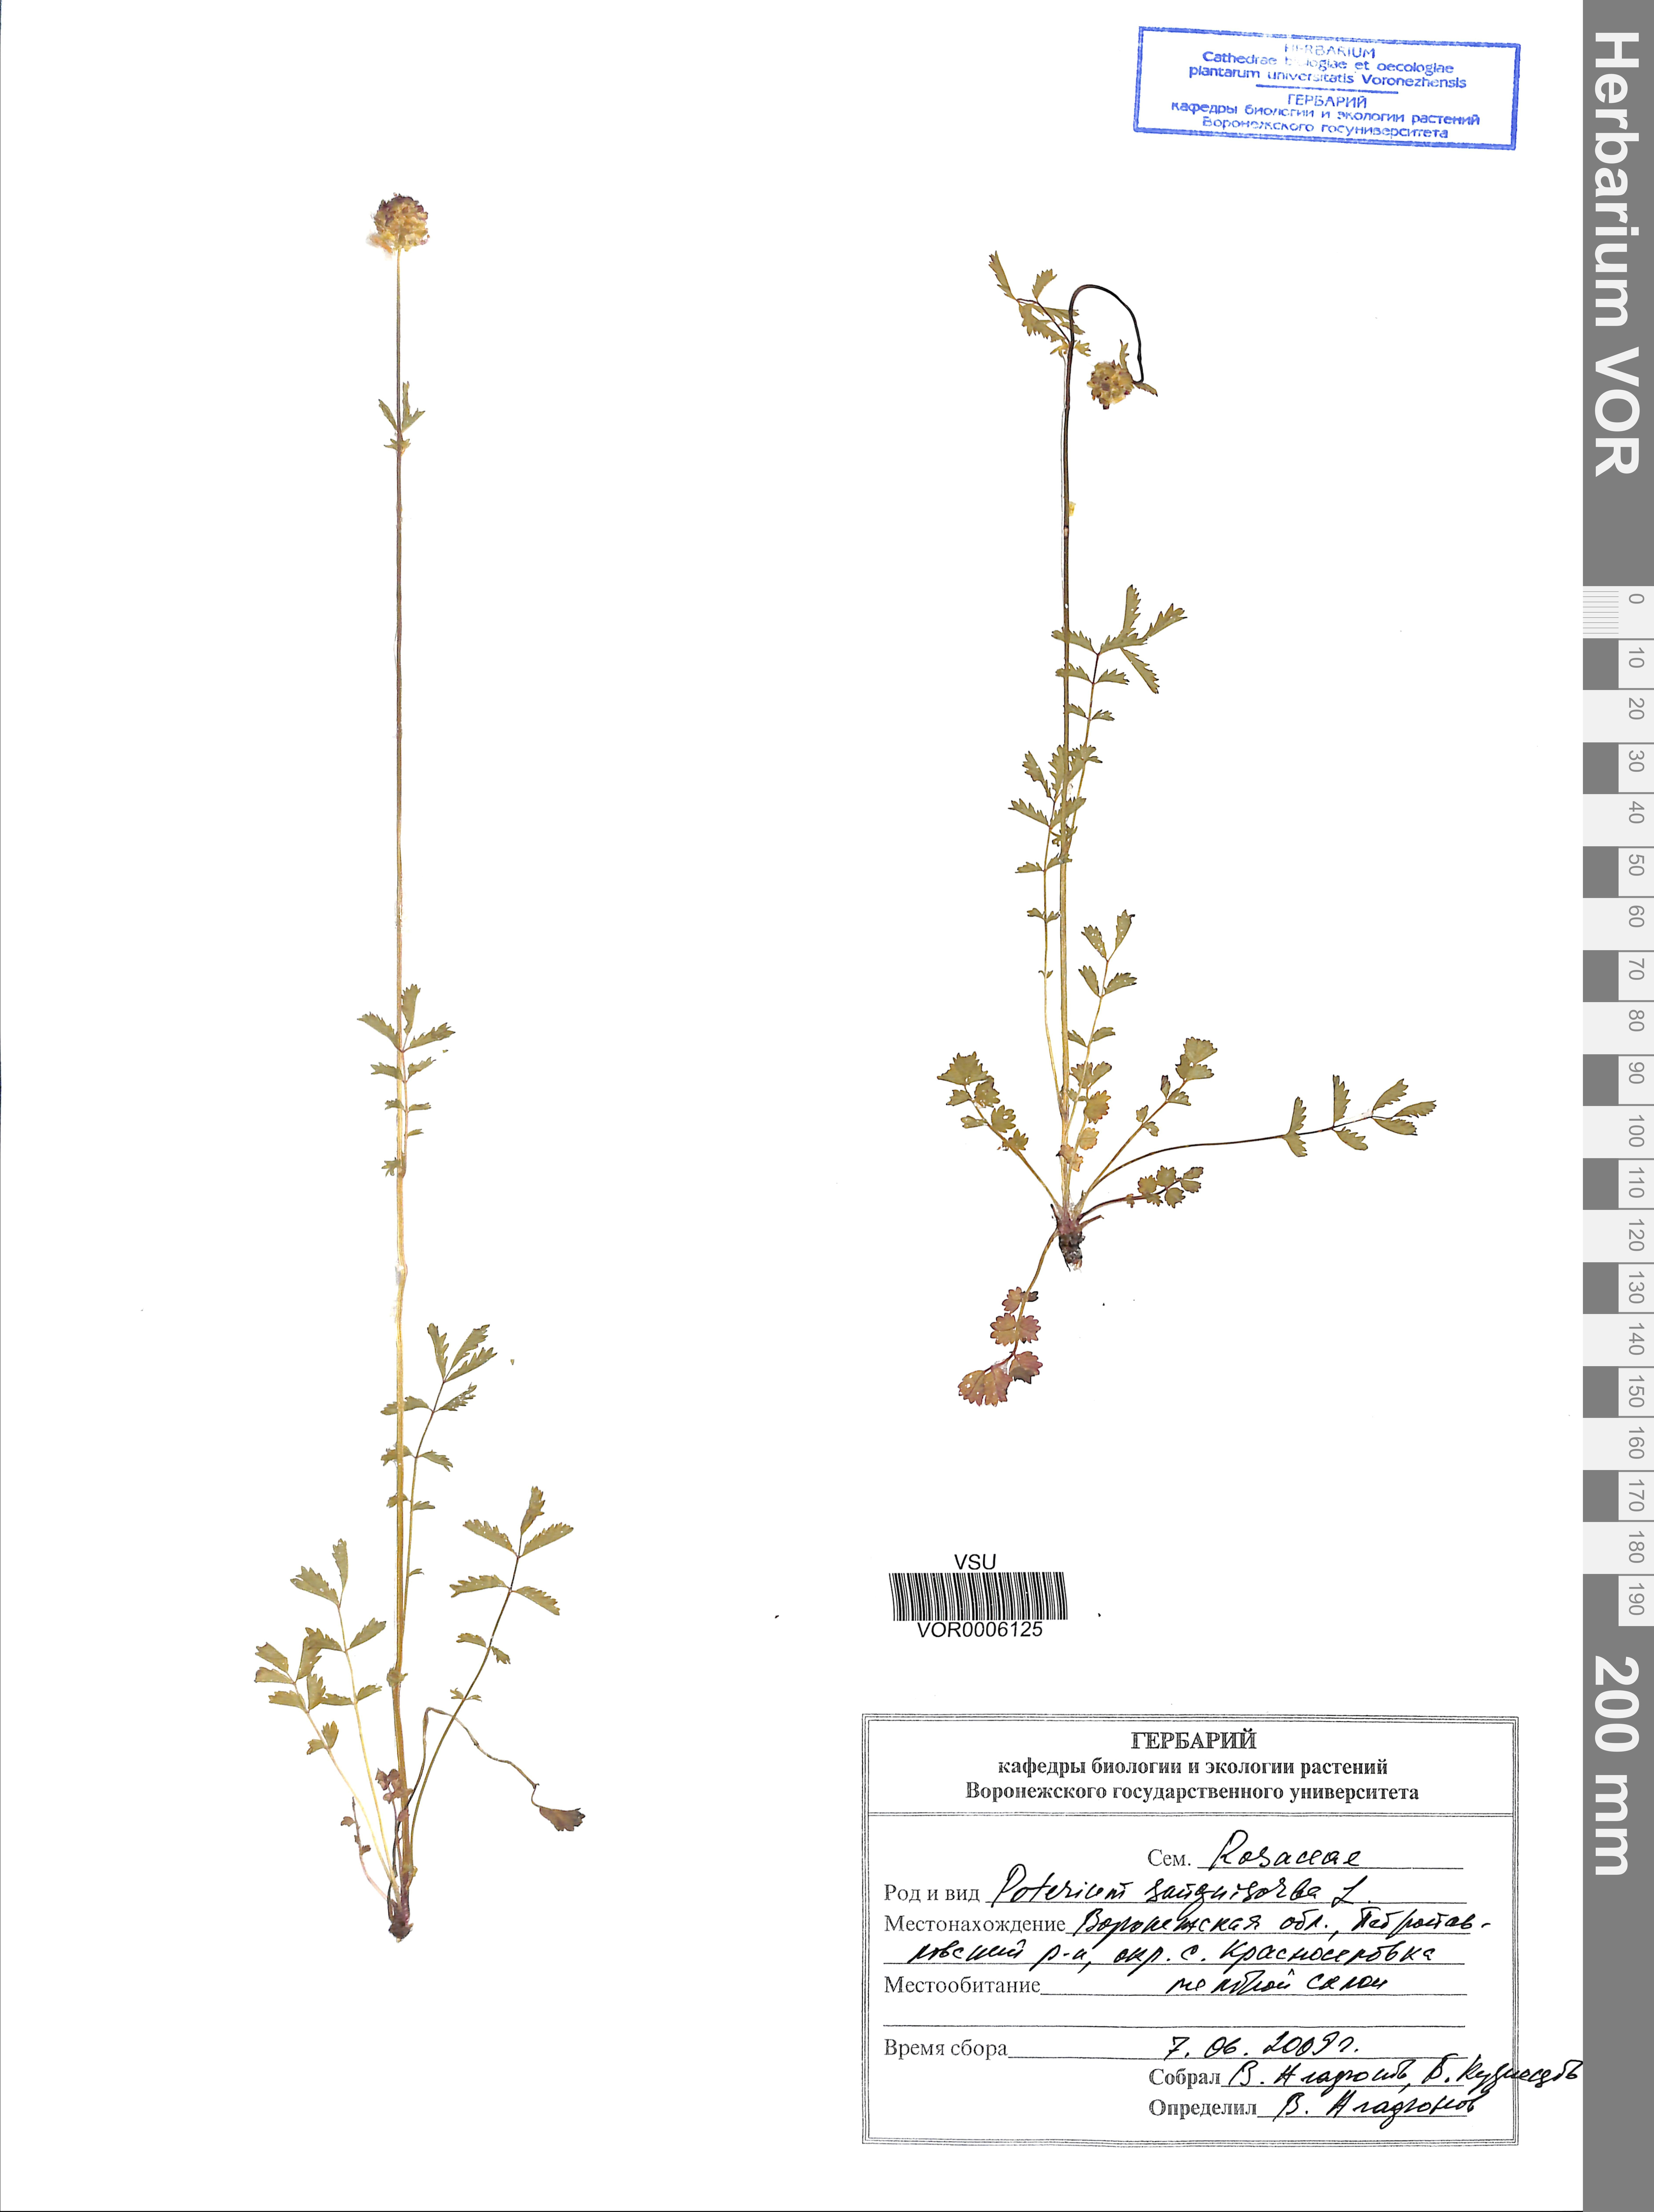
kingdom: Plantae
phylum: Tracheophyta
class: Magnoliopsida
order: Rosales
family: Rosaceae
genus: Poterium
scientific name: Poterium sanguisorba
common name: Salad burnet
